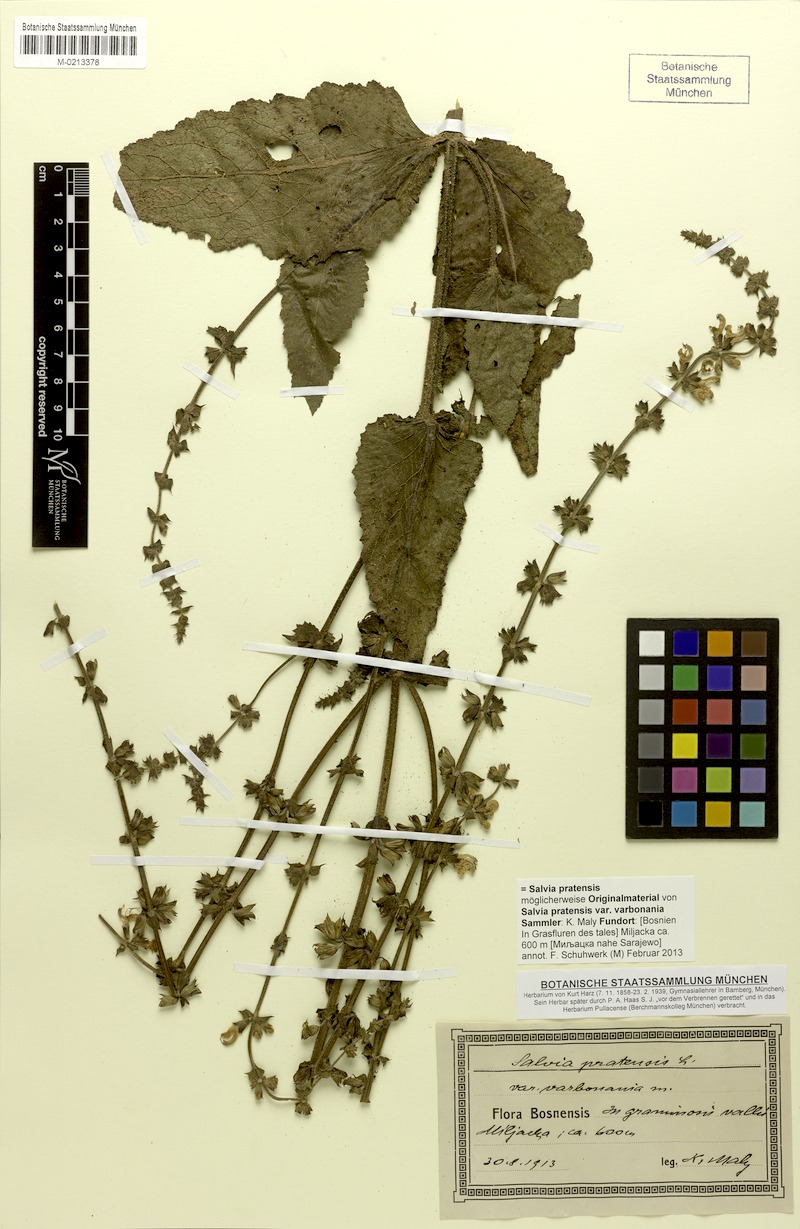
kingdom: Plantae
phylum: Tracheophyta
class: Magnoliopsida
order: Lamiales
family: Lamiaceae
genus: Salvia
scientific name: Salvia pratensis
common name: Meadow sage
